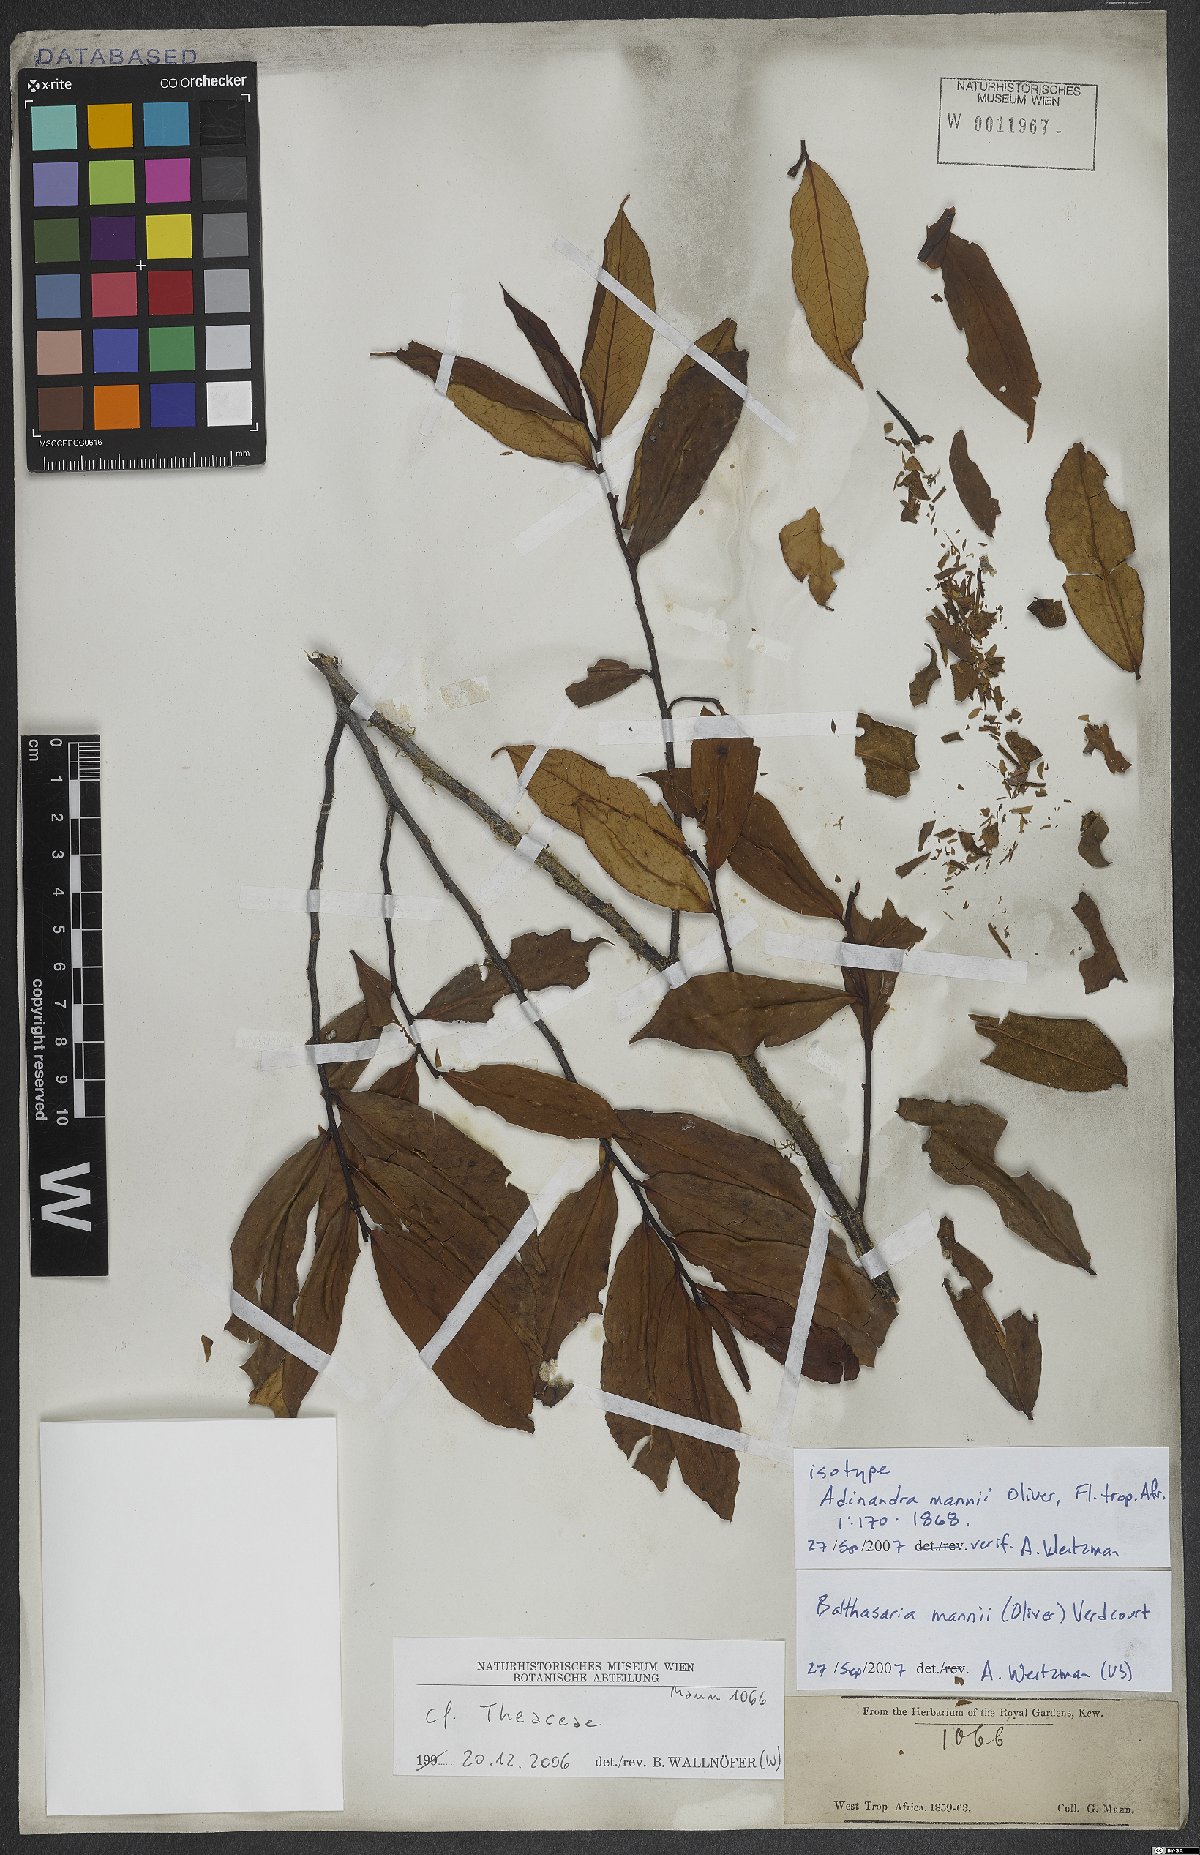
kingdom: Plantae
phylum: Tracheophyta
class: Magnoliopsida
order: Ericales
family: Pentaphylacaceae
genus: Balthasaria
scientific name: Balthasaria mannii
